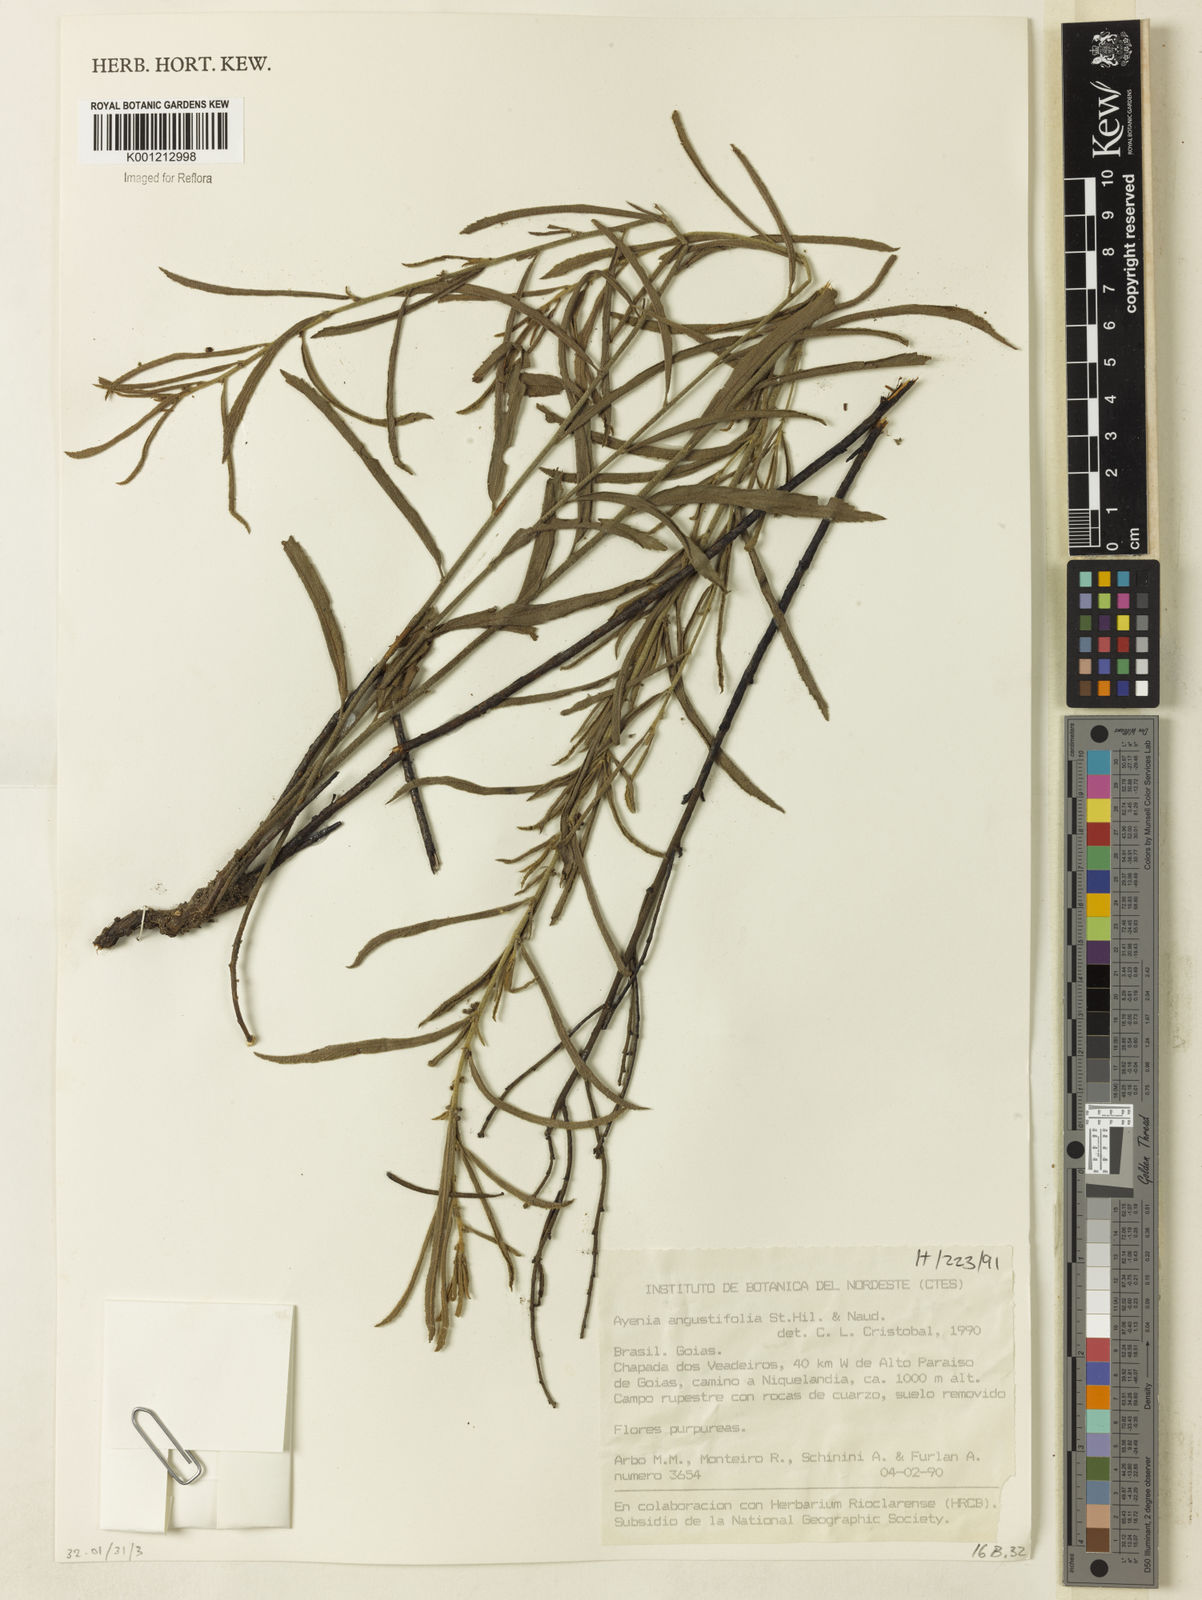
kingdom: Plantae
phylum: Tracheophyta
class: Magnoliopsida
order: Malvales
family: Malvaceae
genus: Ayenia
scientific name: Ayenia angustifolia
